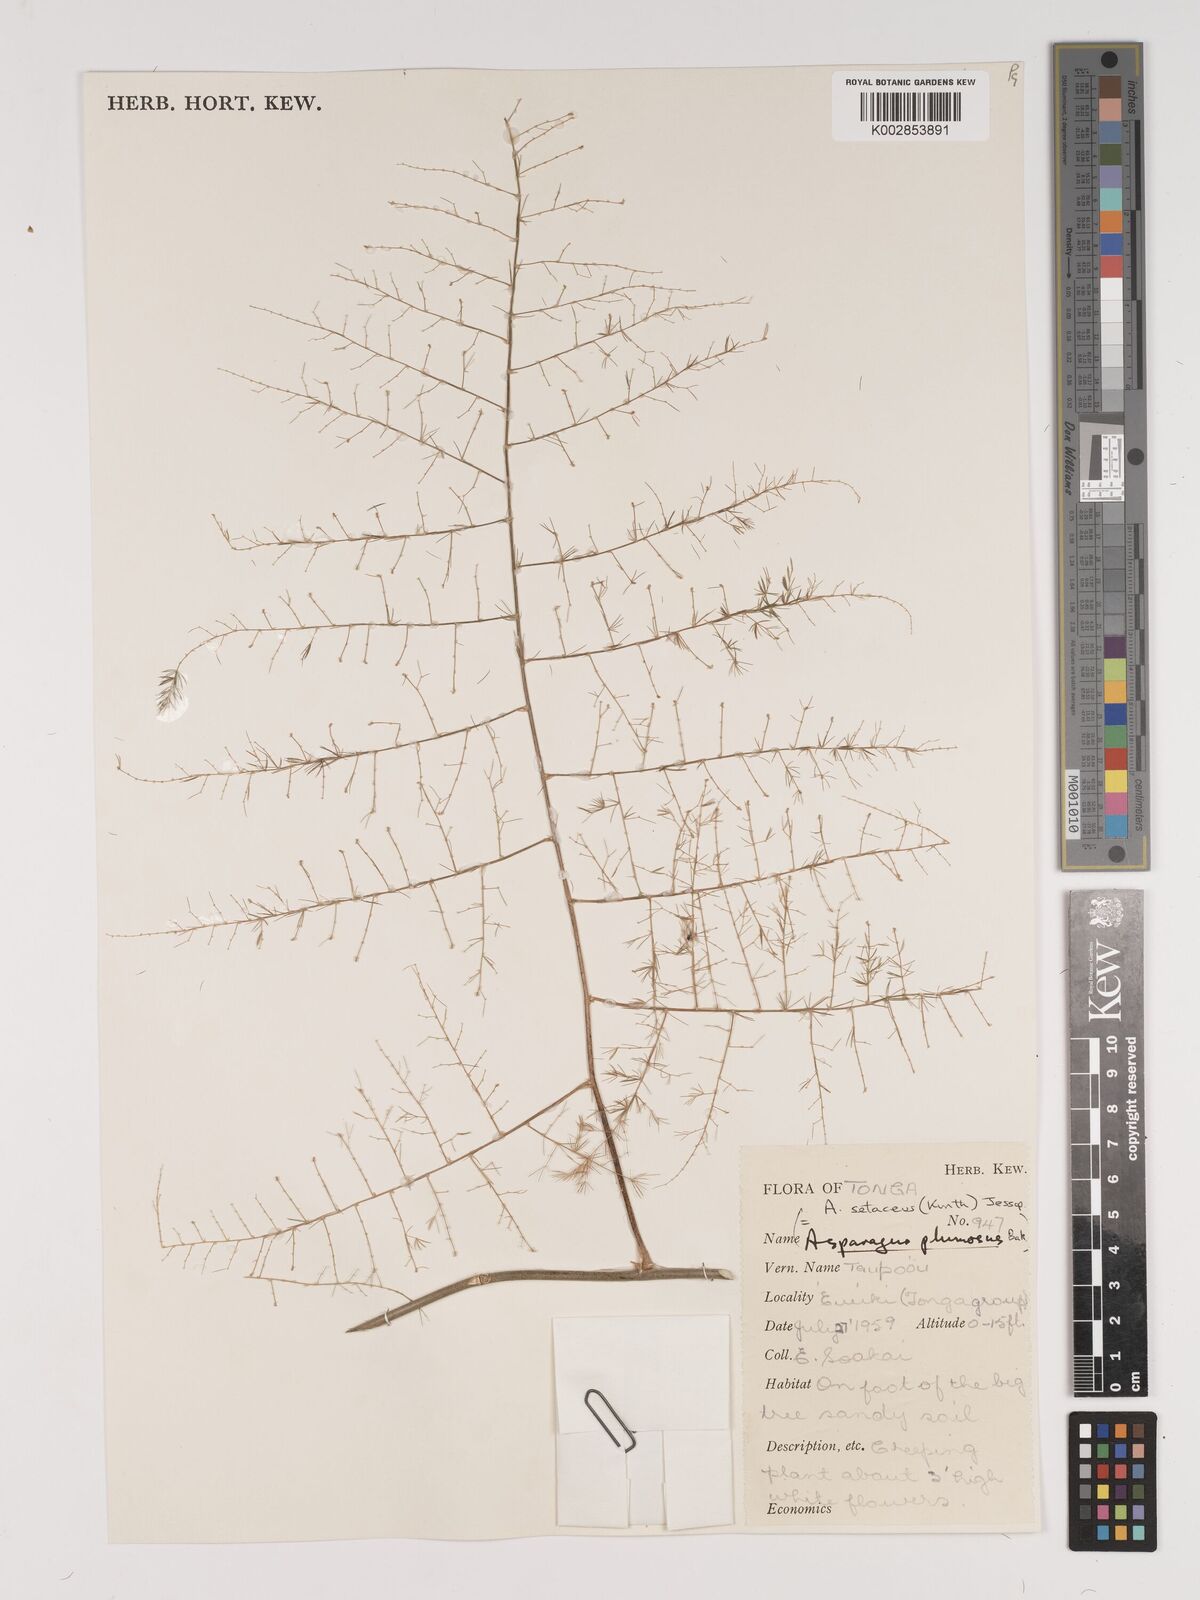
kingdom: Plantae
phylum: Tracheophyta
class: Liliopsida
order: Asparagales
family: Asparagaceae
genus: Asparagus
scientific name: Asparagus setaceus
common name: Common asparagus fern
